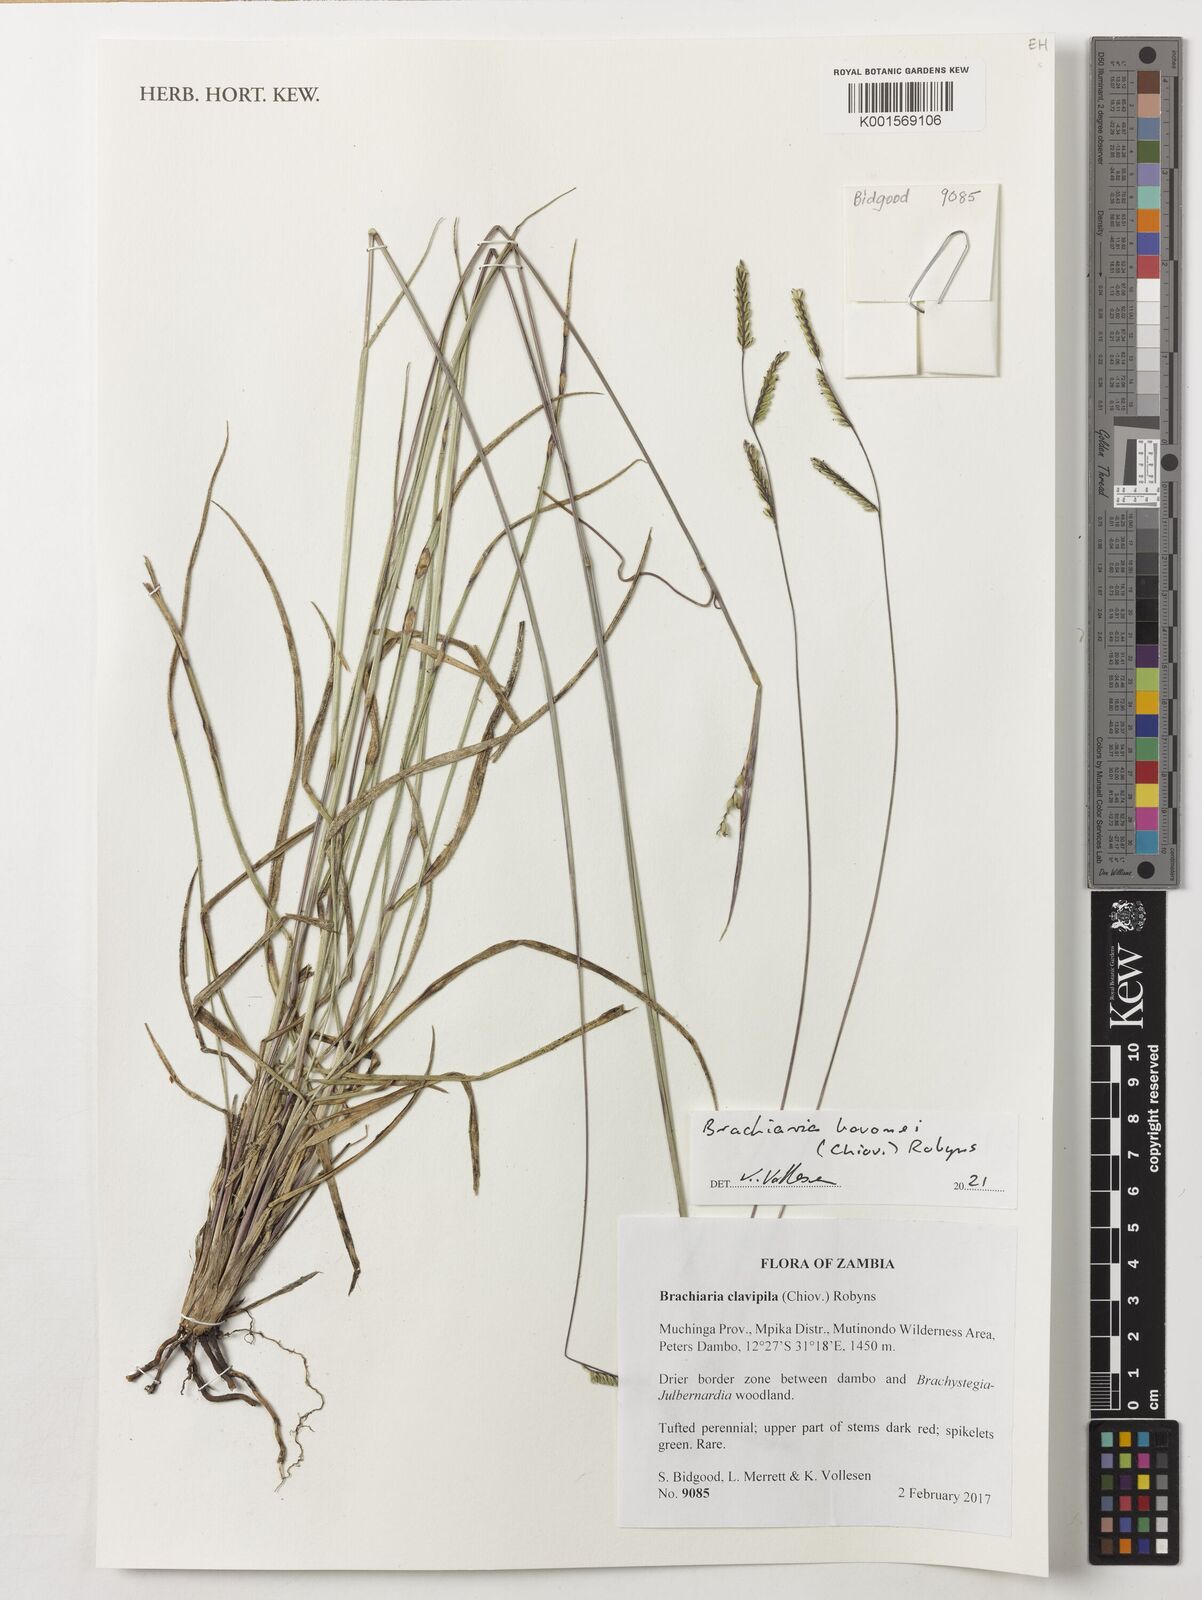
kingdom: Plantae
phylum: Tracheophyta
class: Liliopsida
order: Poales
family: Poaceae
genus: Urochloa
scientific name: Urochloa clavipila
